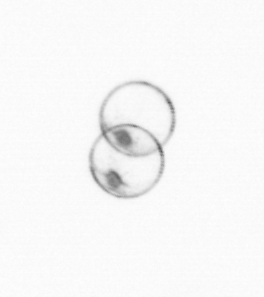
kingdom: Chromista
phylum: Myzozoa
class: Dinophyceae
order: Noctilucales
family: Noctilucaceae
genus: Noctiluca
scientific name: Noctiluca scintillans
